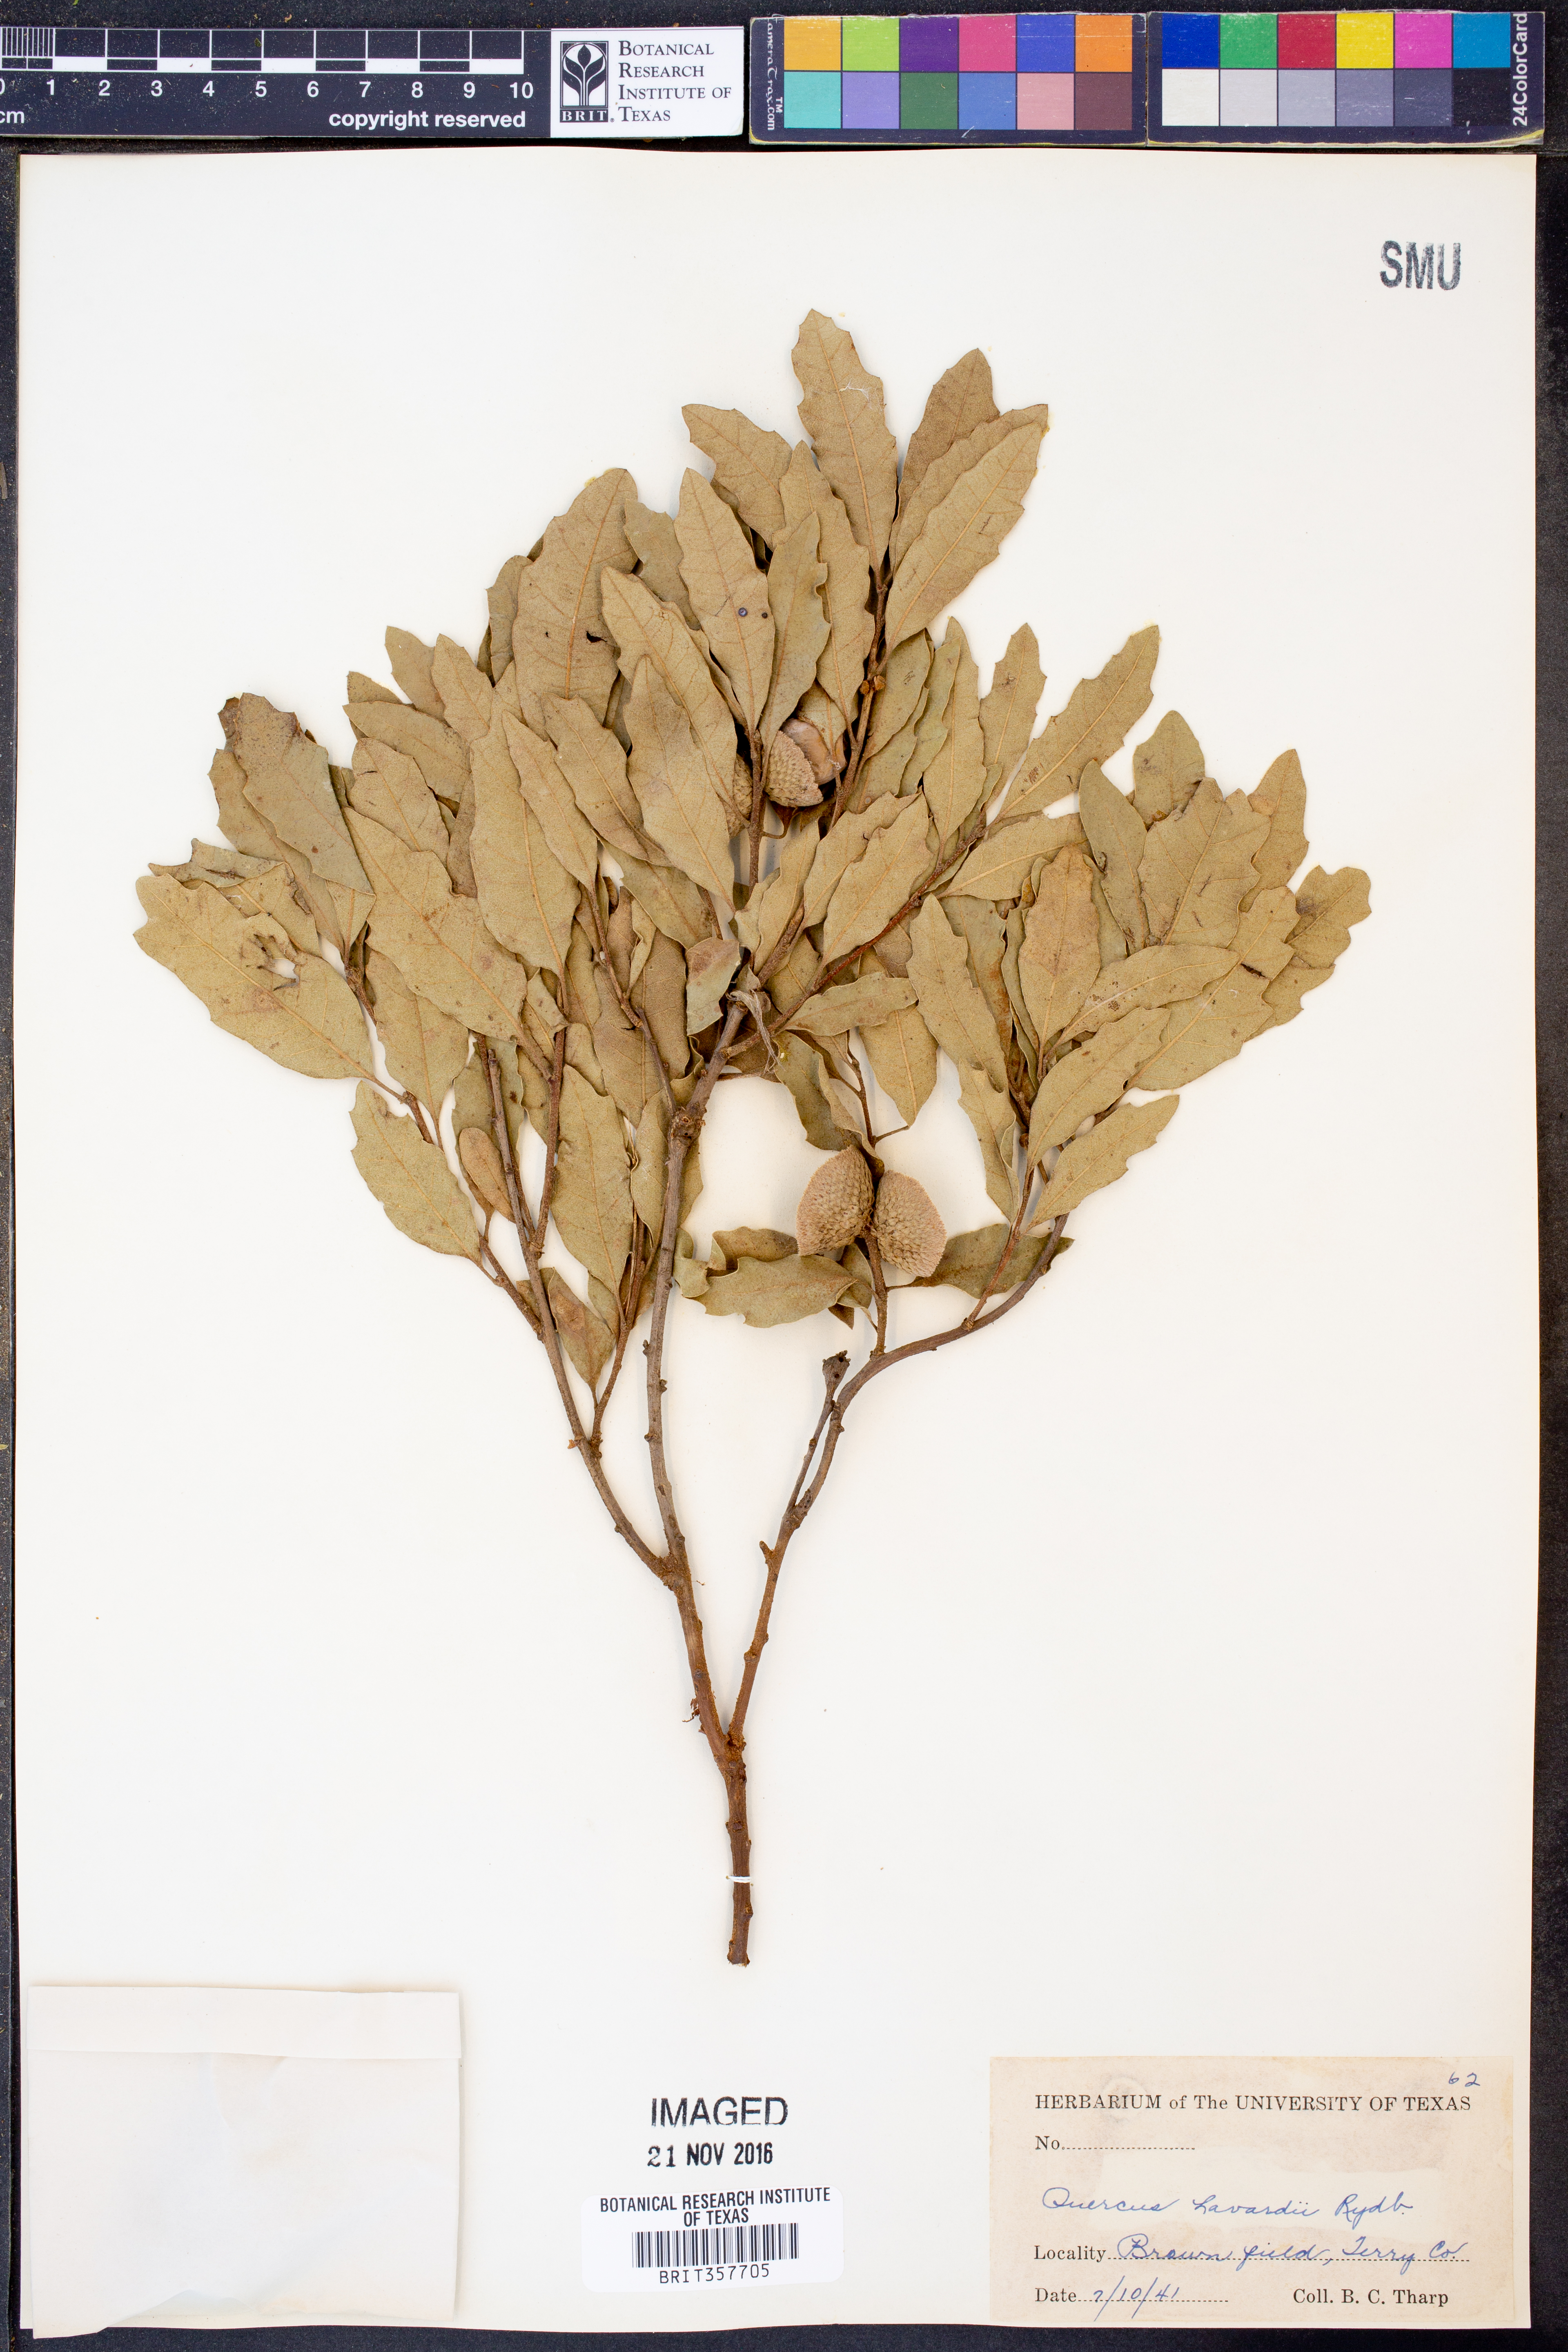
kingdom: Plantae
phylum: Tracheophyta
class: Magnoliopsida
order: Fagales
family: Fagaceae
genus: Quercus
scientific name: Quercus havardii
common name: Shinnery oak
